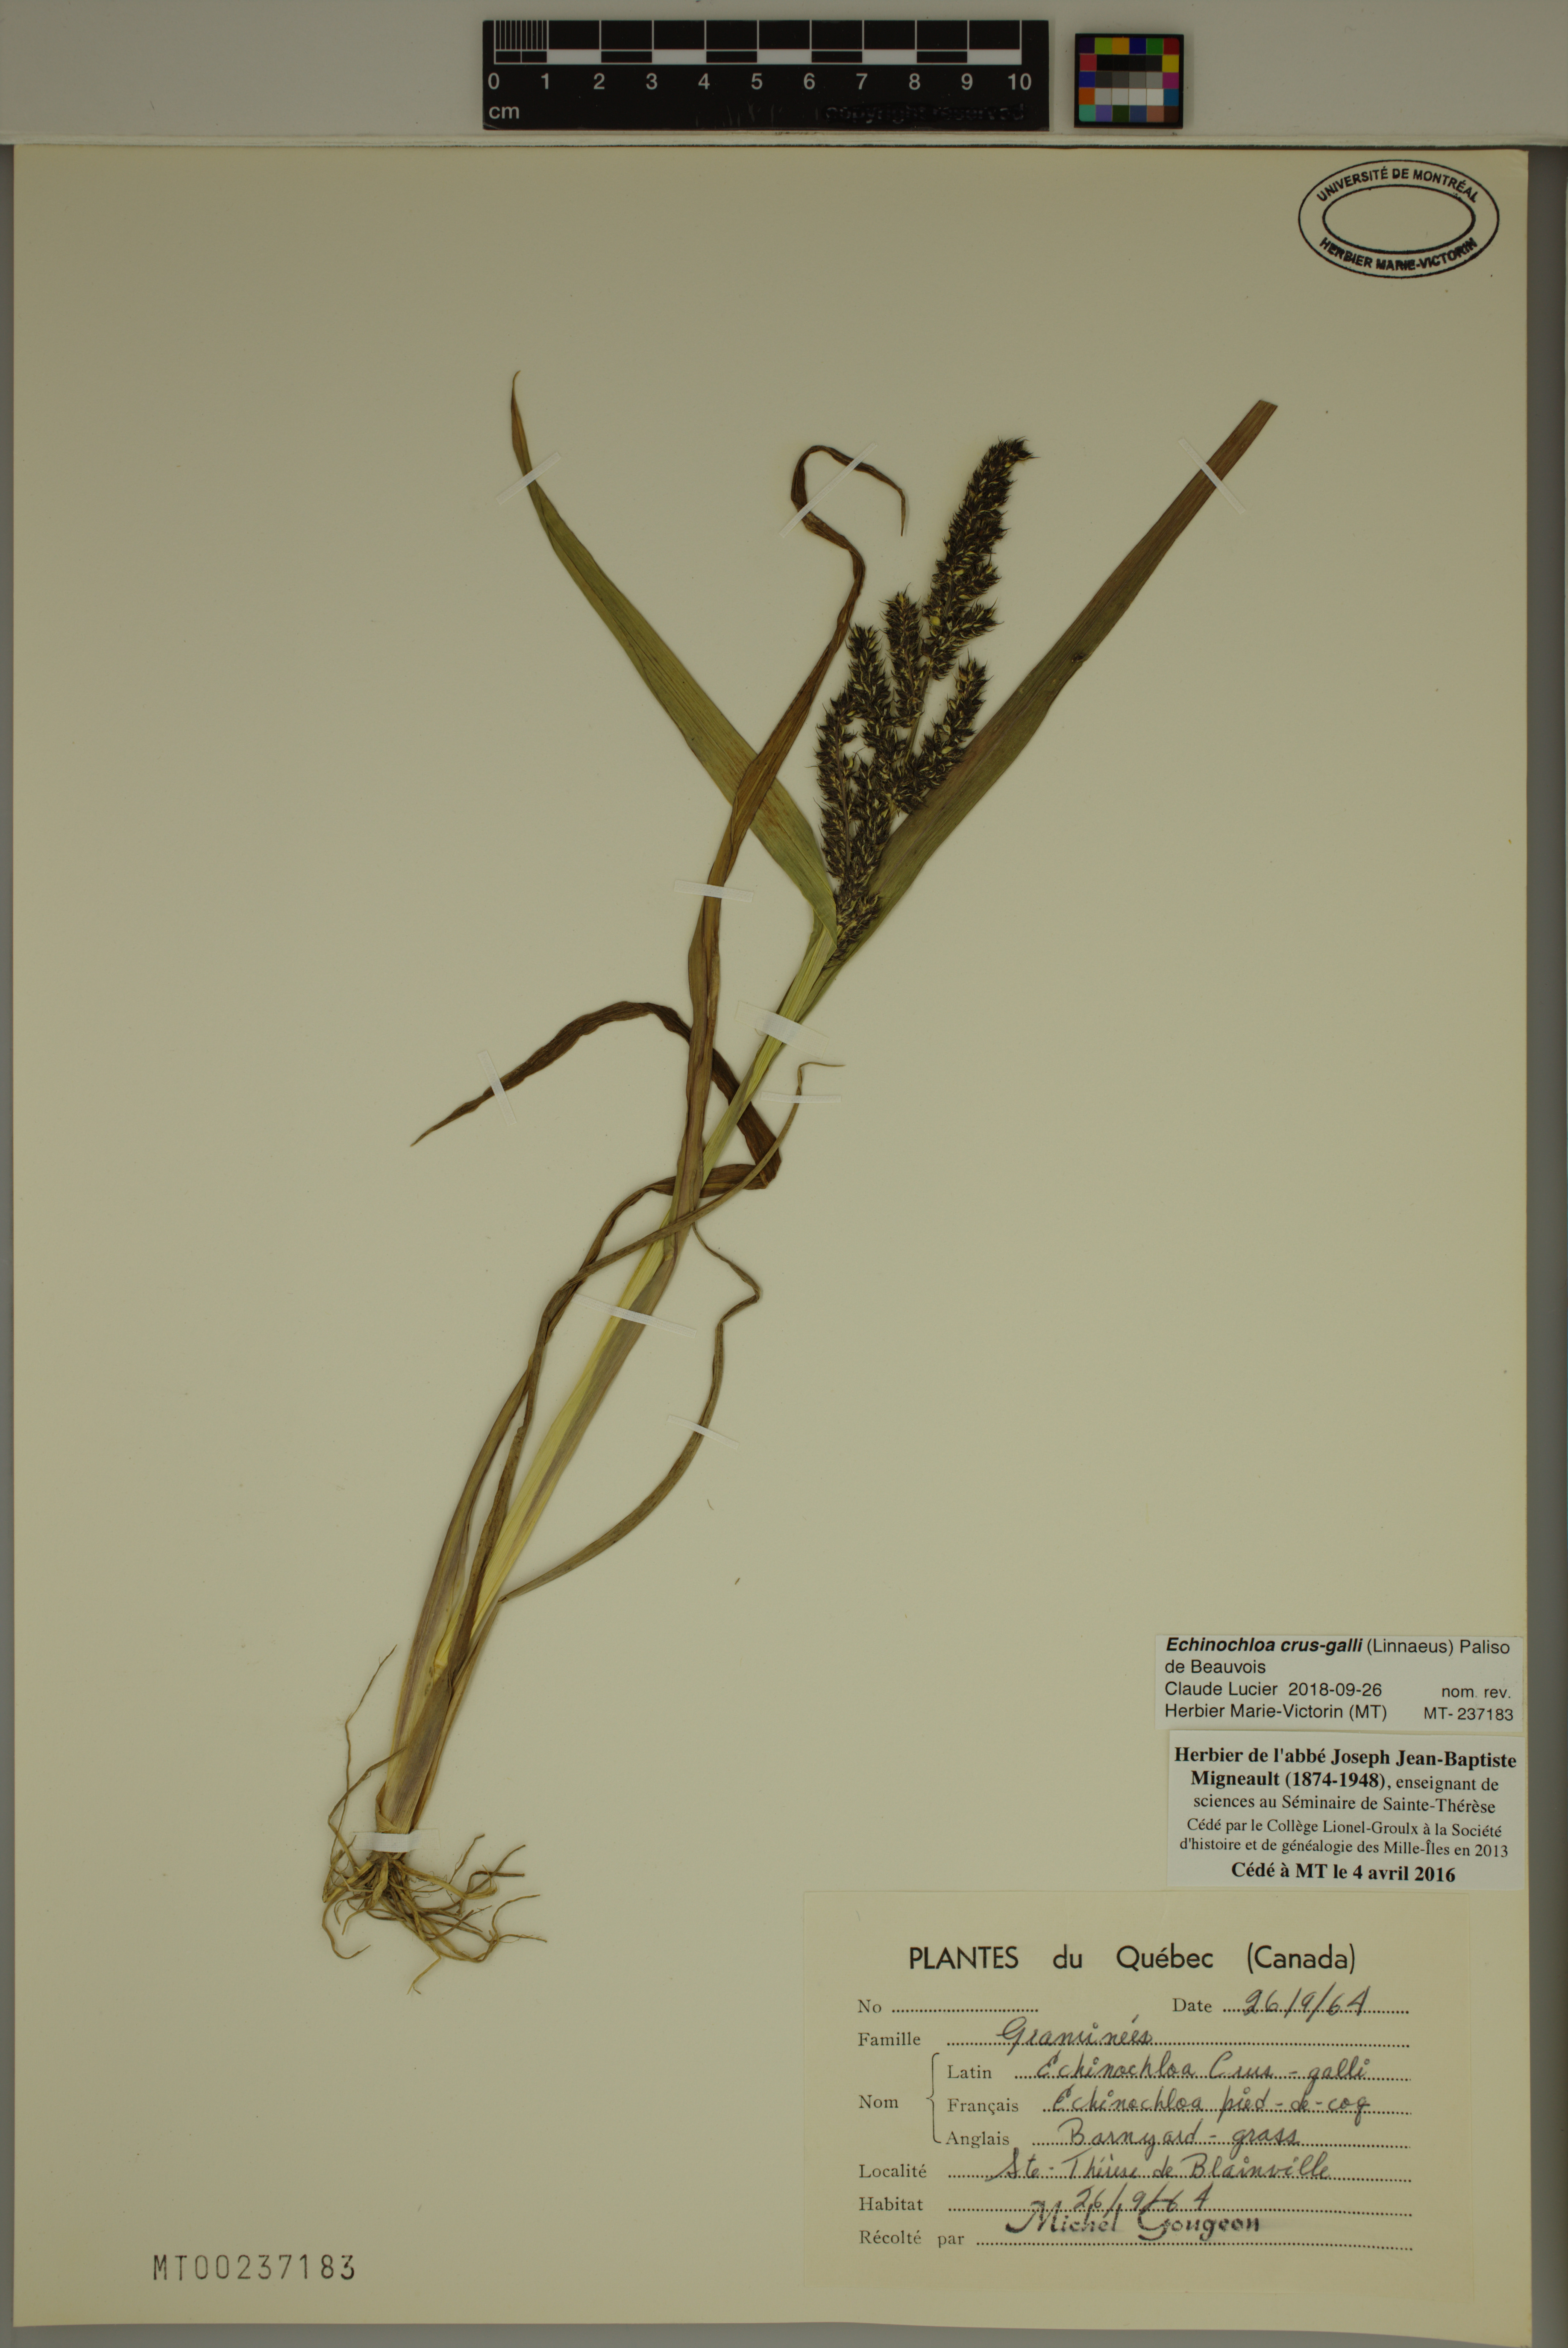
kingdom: Plantae
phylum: Tracheophyta
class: Liliopsida
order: Poales
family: Poaceae
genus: Echinochloa
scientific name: Echinochloa crus-galli
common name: Cockspur
